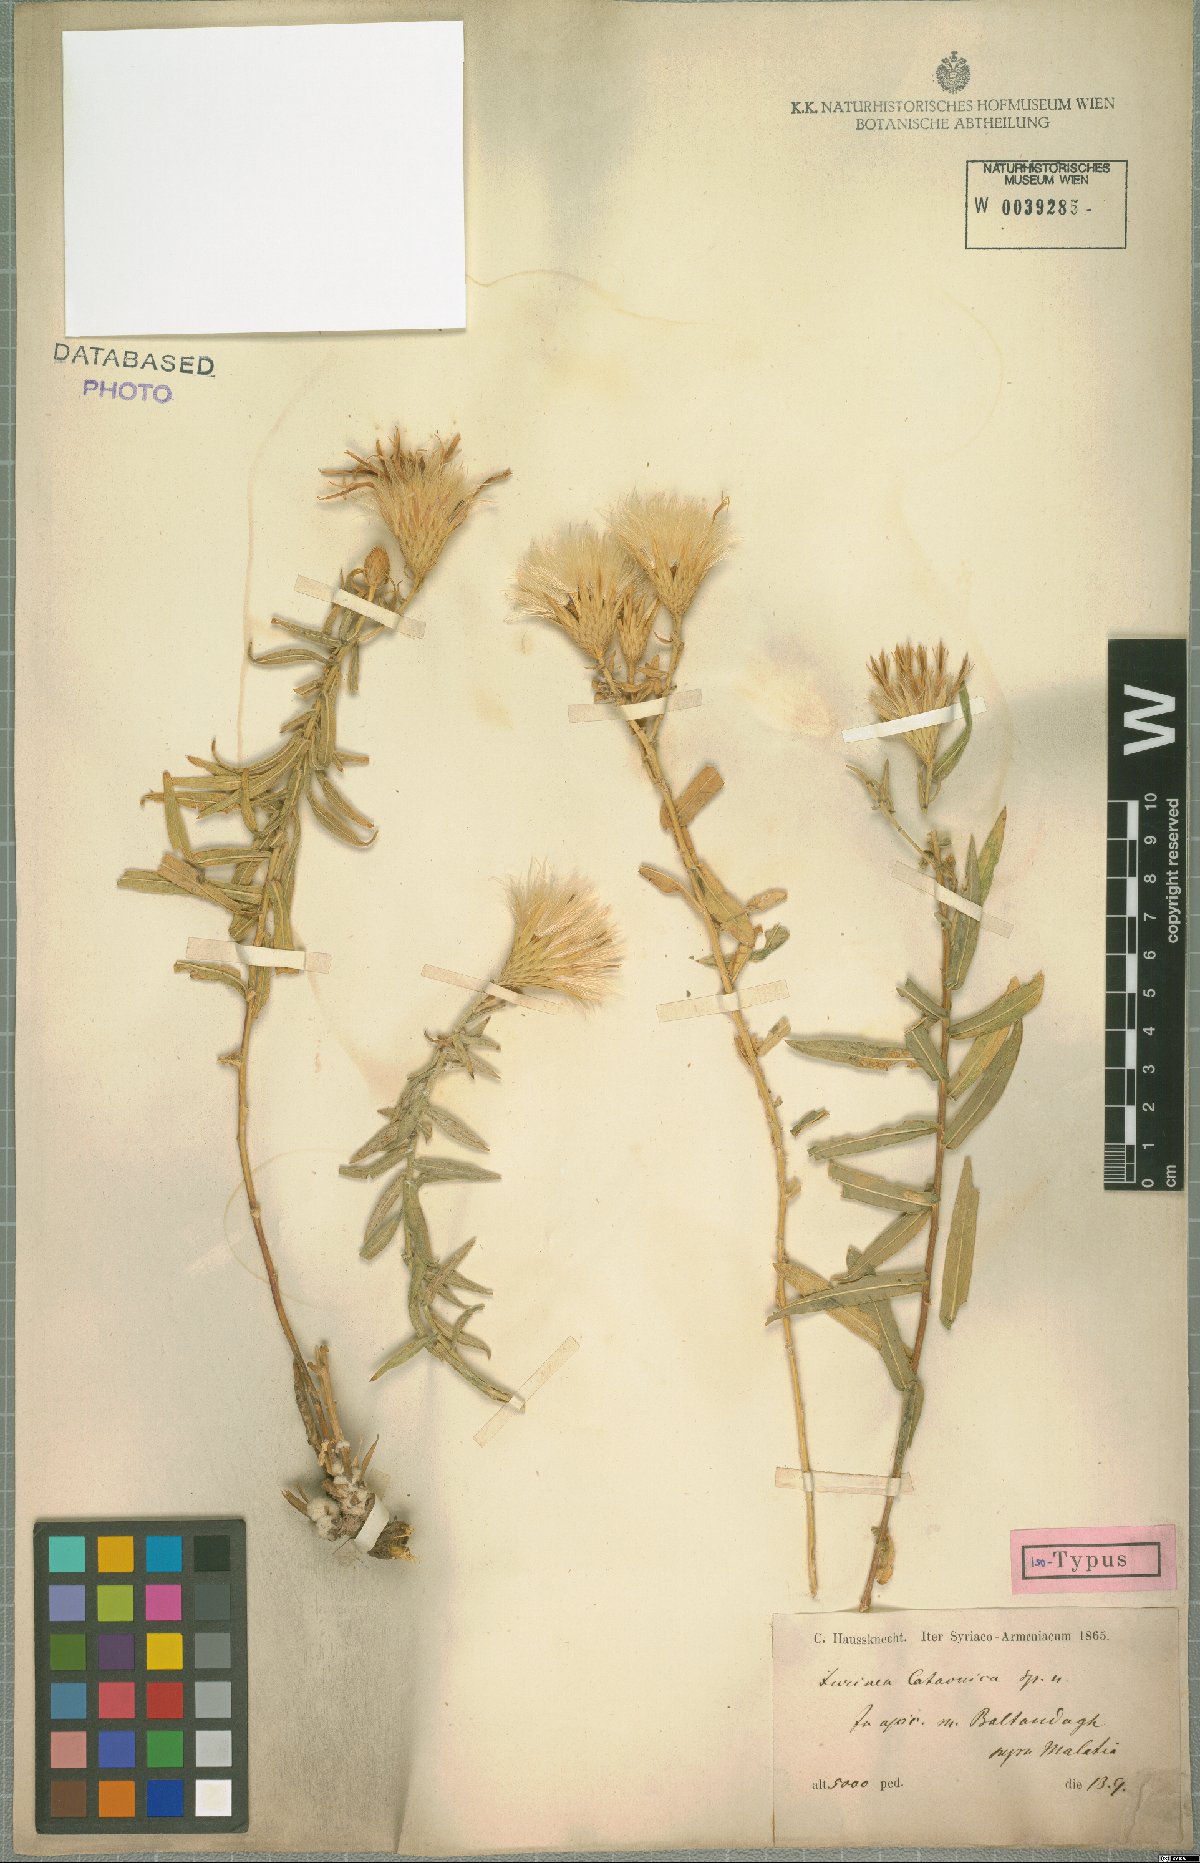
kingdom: Plantae
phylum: Tracheophyta
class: Magnoliopsida
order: Asterales
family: Asteraceae
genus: Jurinea
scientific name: Jurinea cataonica
